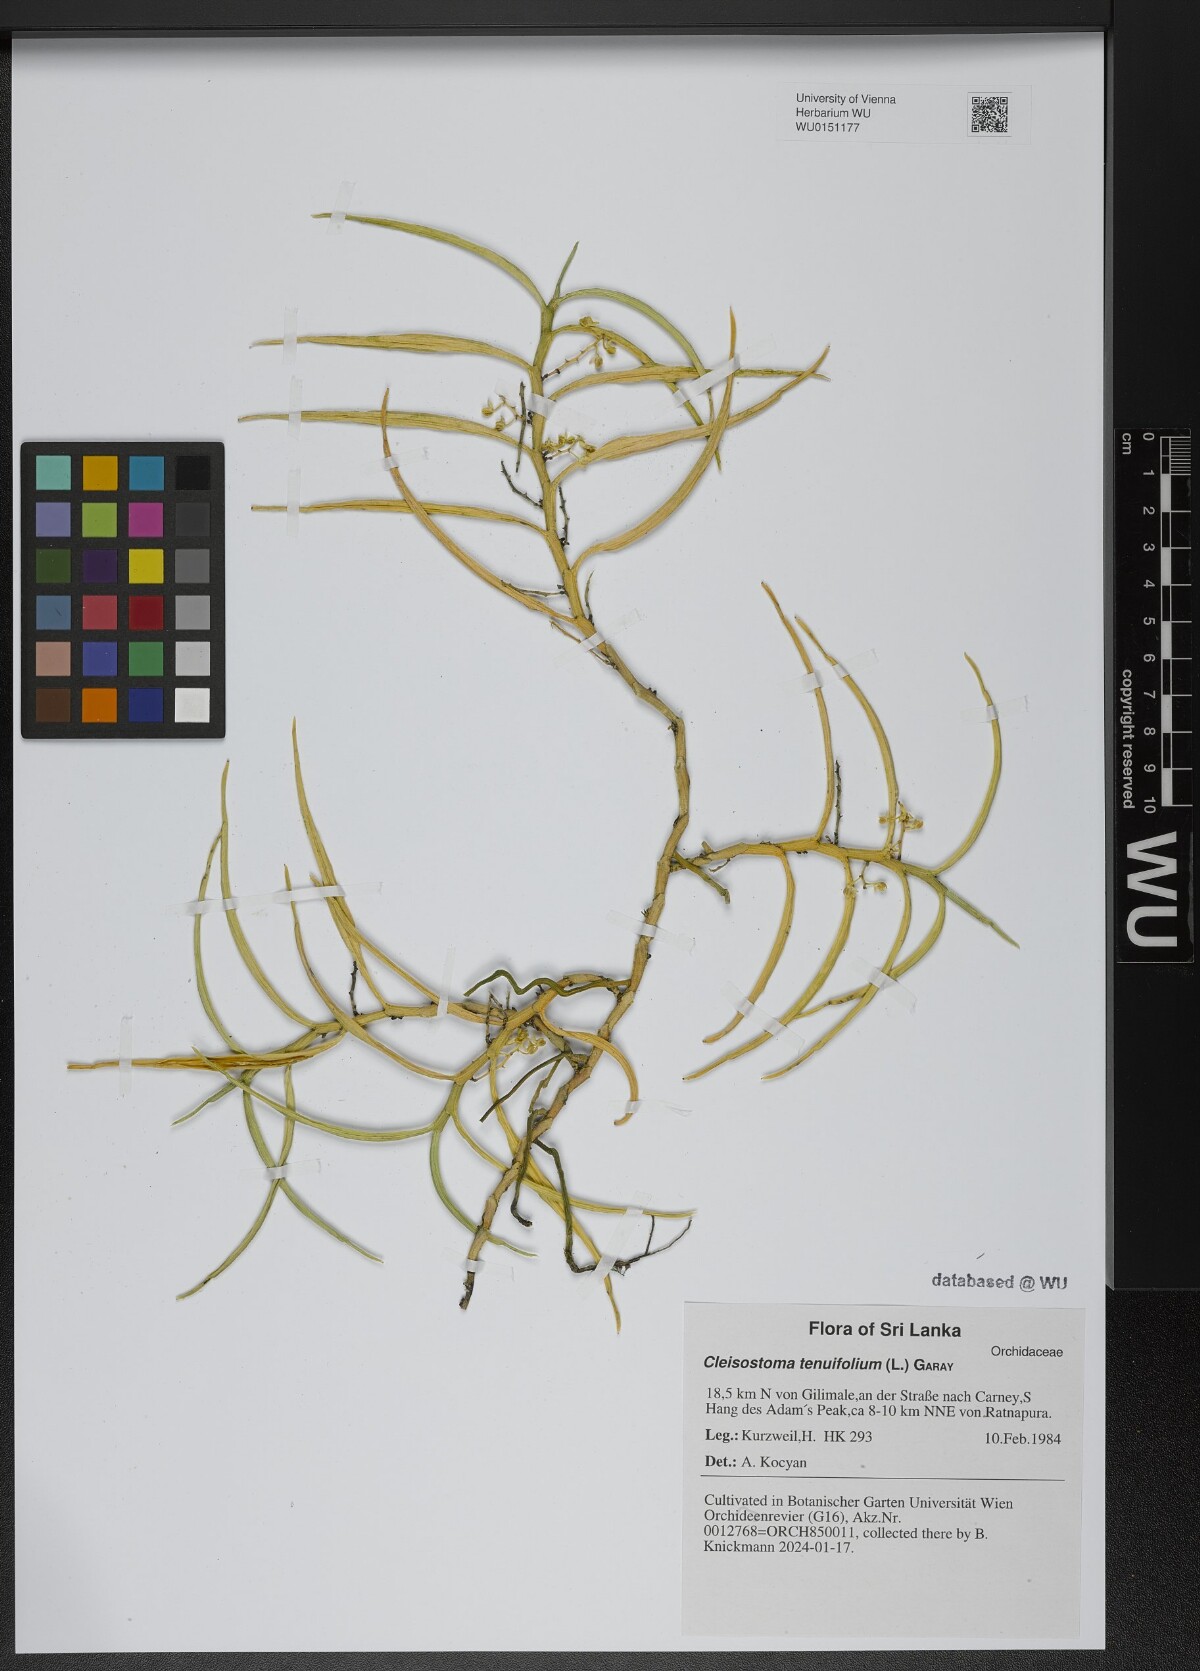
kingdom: Plantae
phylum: Tracheophyta
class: Liliopsida
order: Asparagales
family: Orchidaceae
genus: Cleisostoma
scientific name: Cleisostoma tenuifolium
